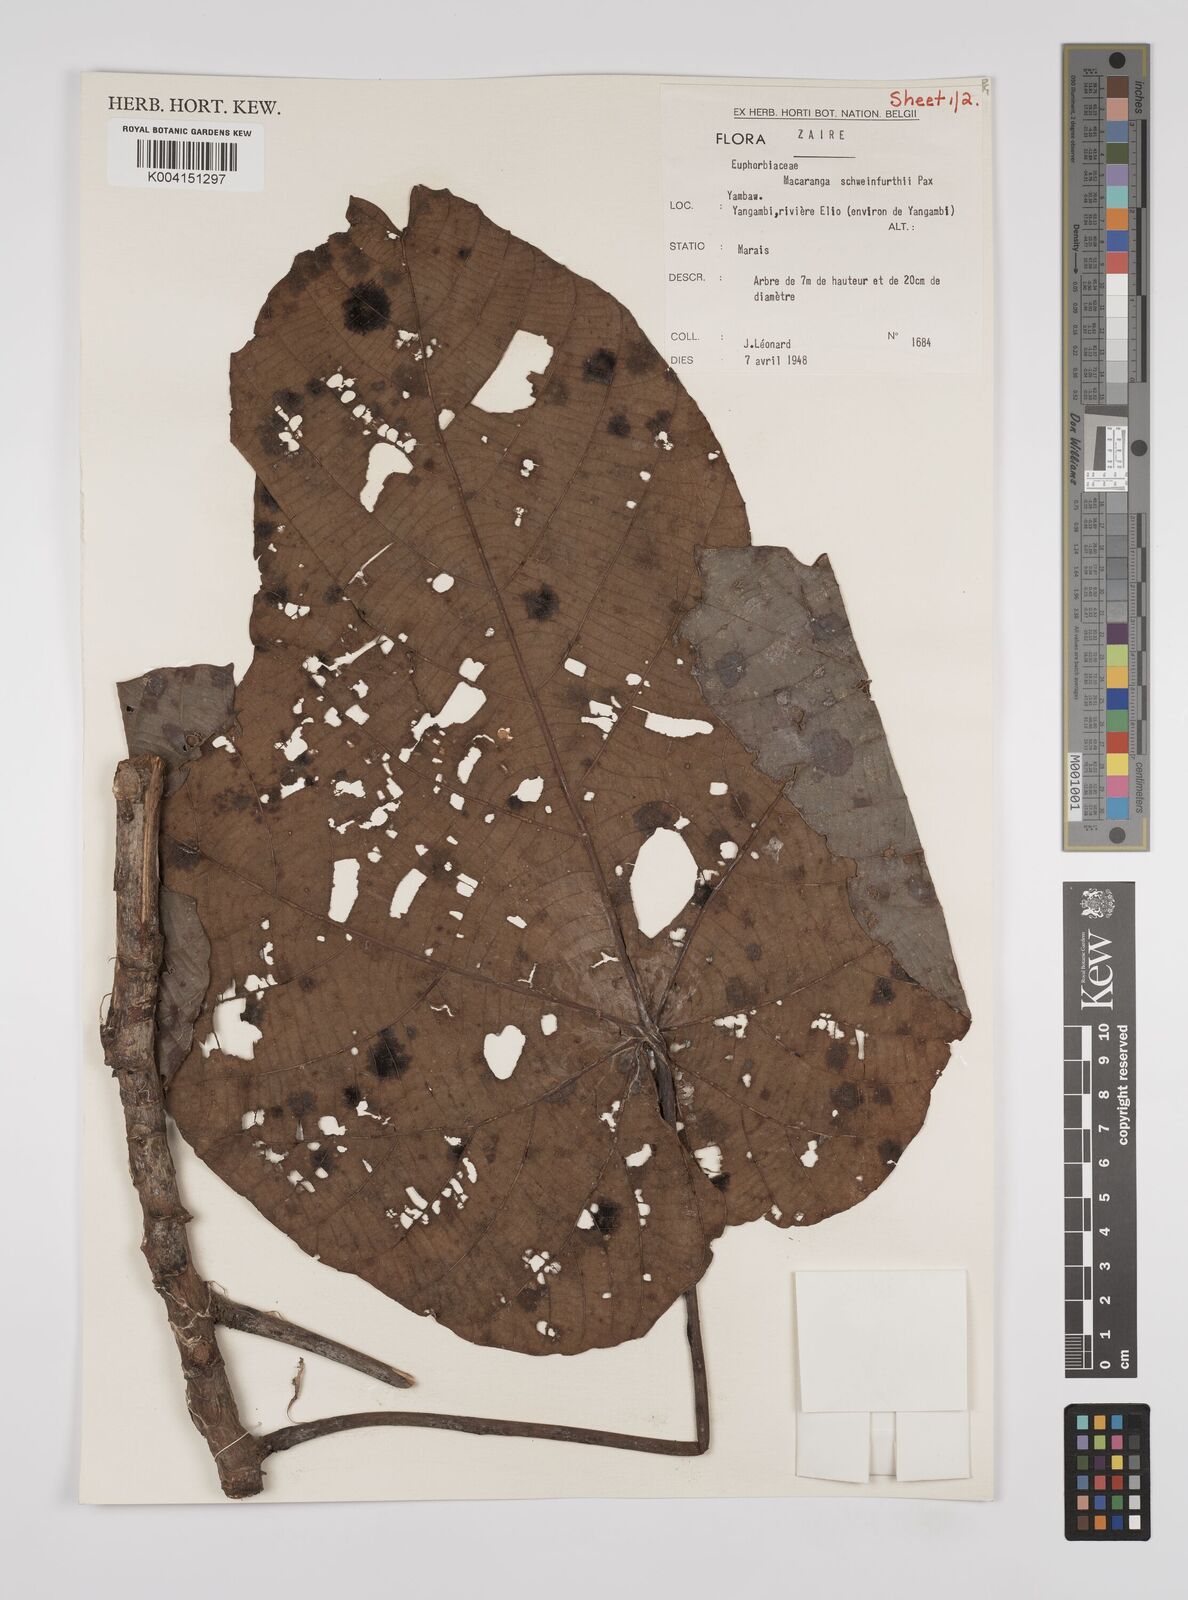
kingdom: Plantae
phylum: Tracheophyta
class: Magnoliopsida
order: Malpighiales
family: Euphorbiaceae
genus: Macaranga
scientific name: Macaranga schweinfurthii
